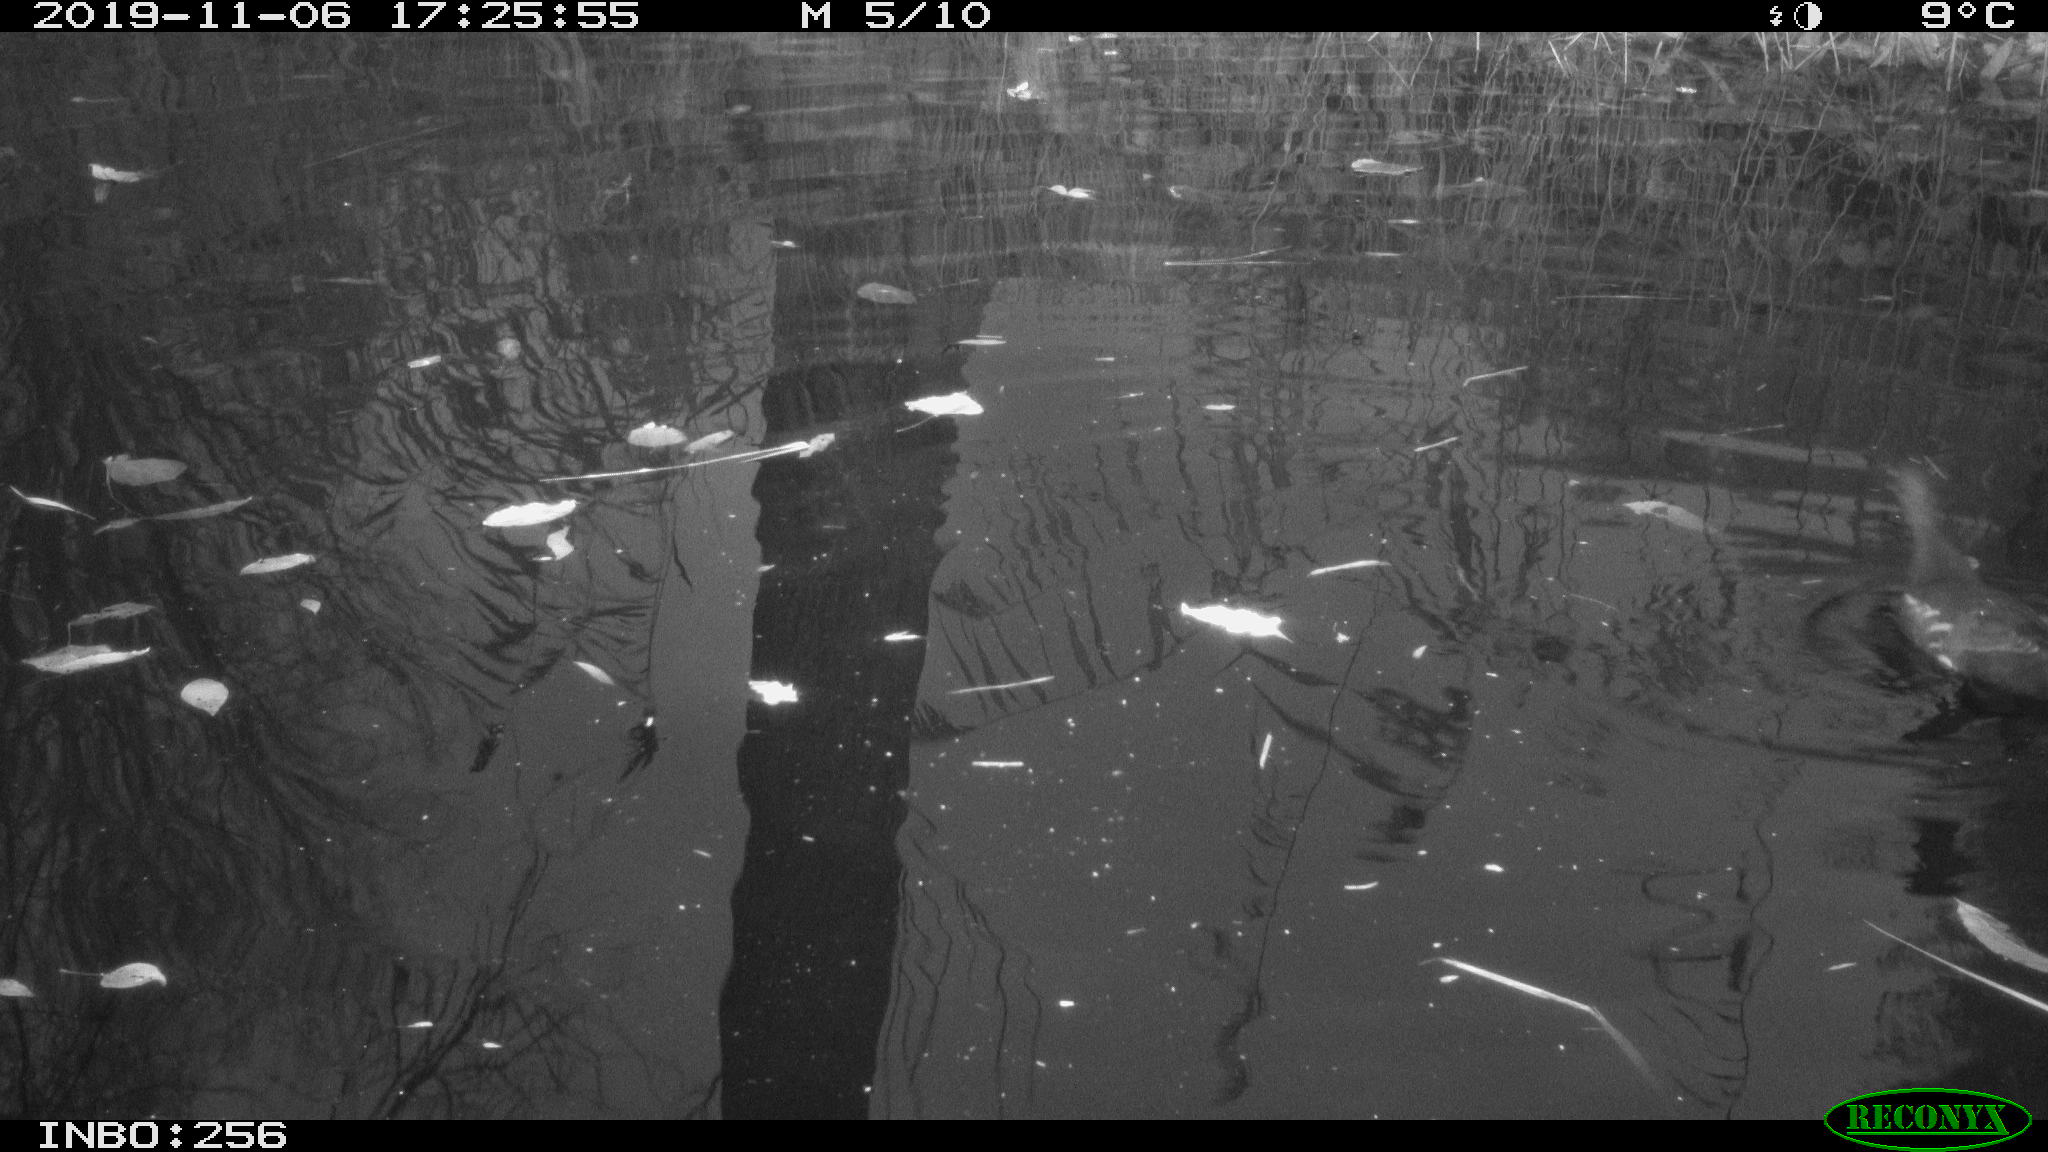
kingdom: Animalia
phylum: Chordata
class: Aves
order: Gruiformes
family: Rallidae
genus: Gallinula
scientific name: Gallinula chloropus
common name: Common moorhen
